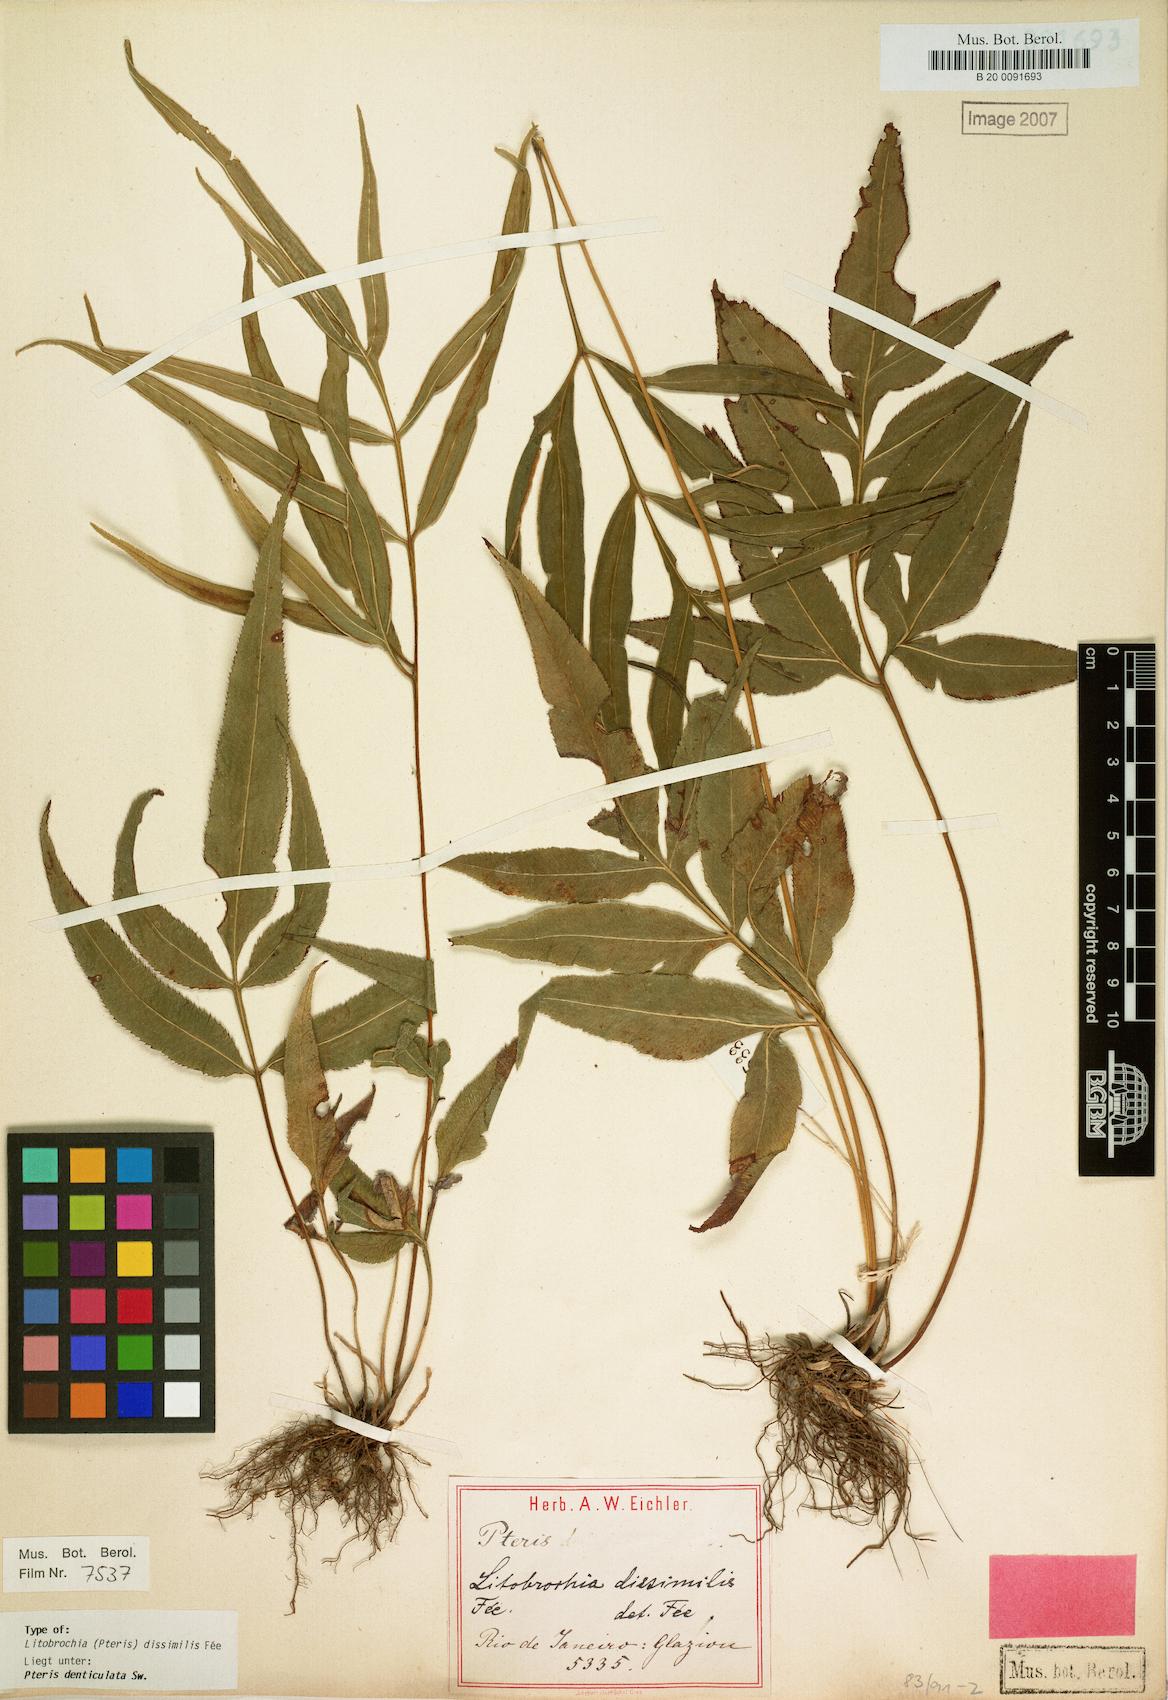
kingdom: Plantae
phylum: Tracheophyta
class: Polypodiopsida
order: Polypodiales
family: Pteridaceae
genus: Pteris
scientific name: Pteris denticulata
